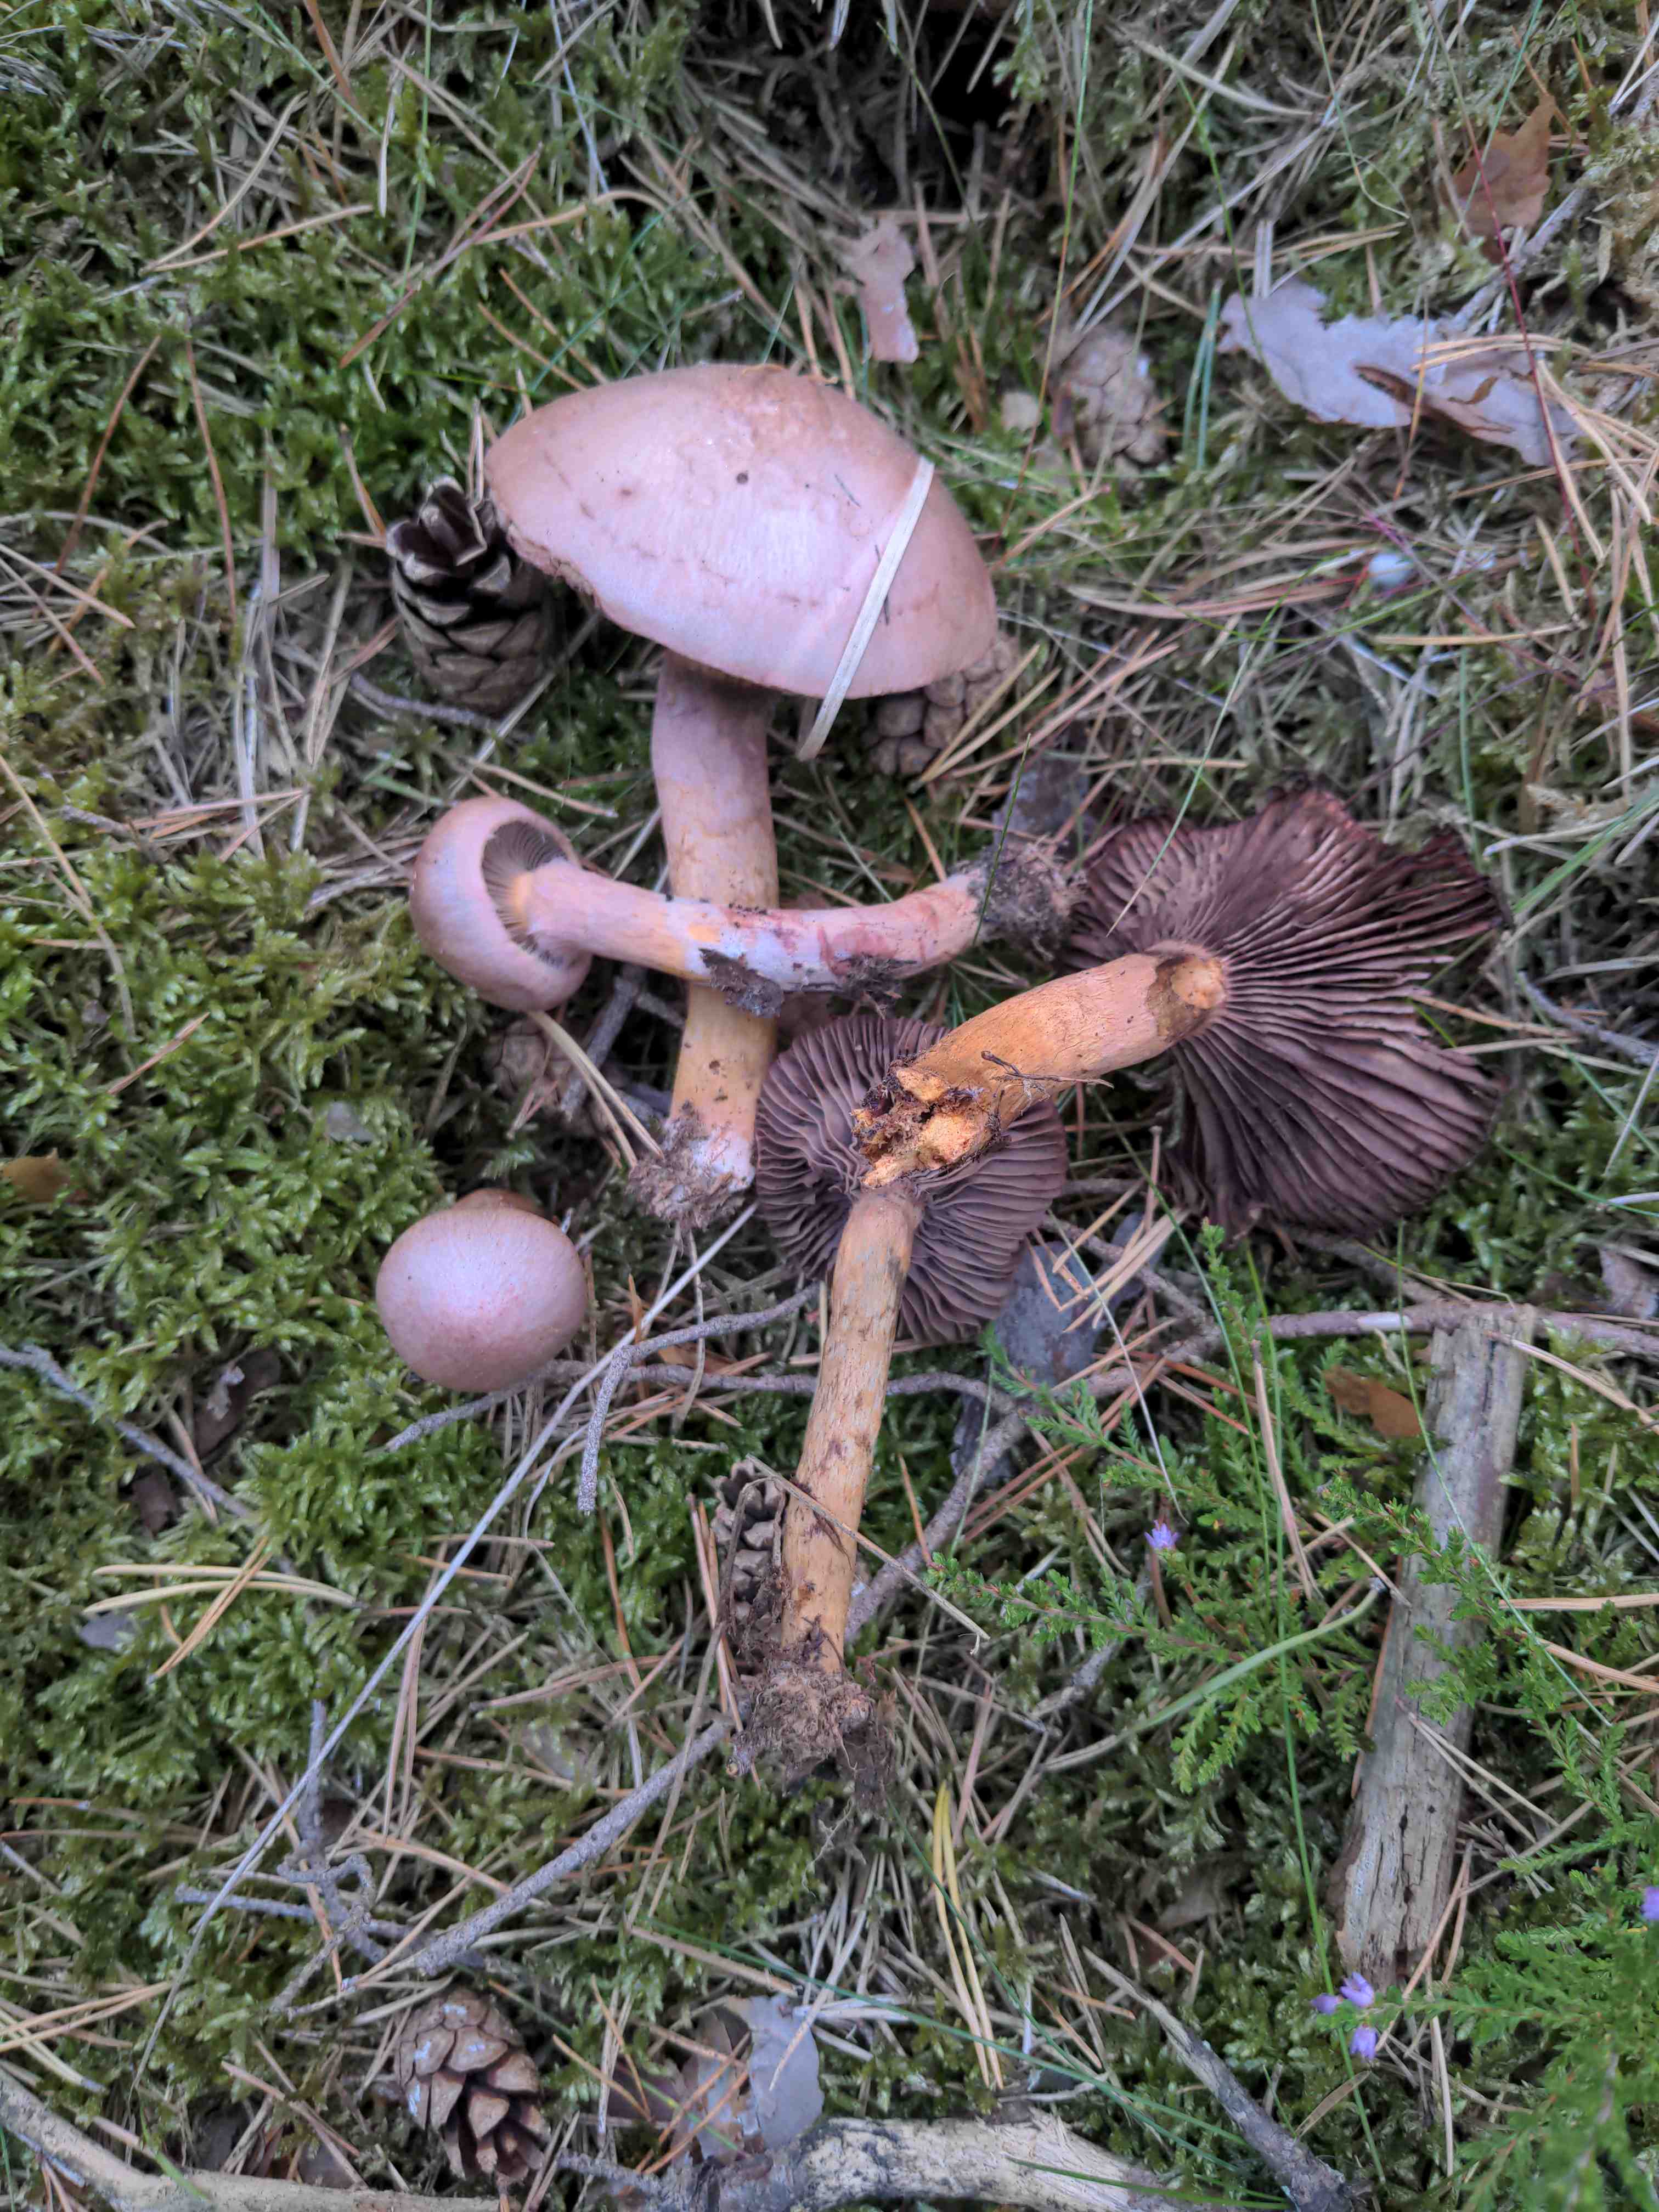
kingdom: Fungi
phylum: Basidiomycota
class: Agaricomycetes
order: Boletales
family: Gomphidiaceae
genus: Chroogomphus
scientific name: Chroogomphus rutilus
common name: brunrød slimslør
